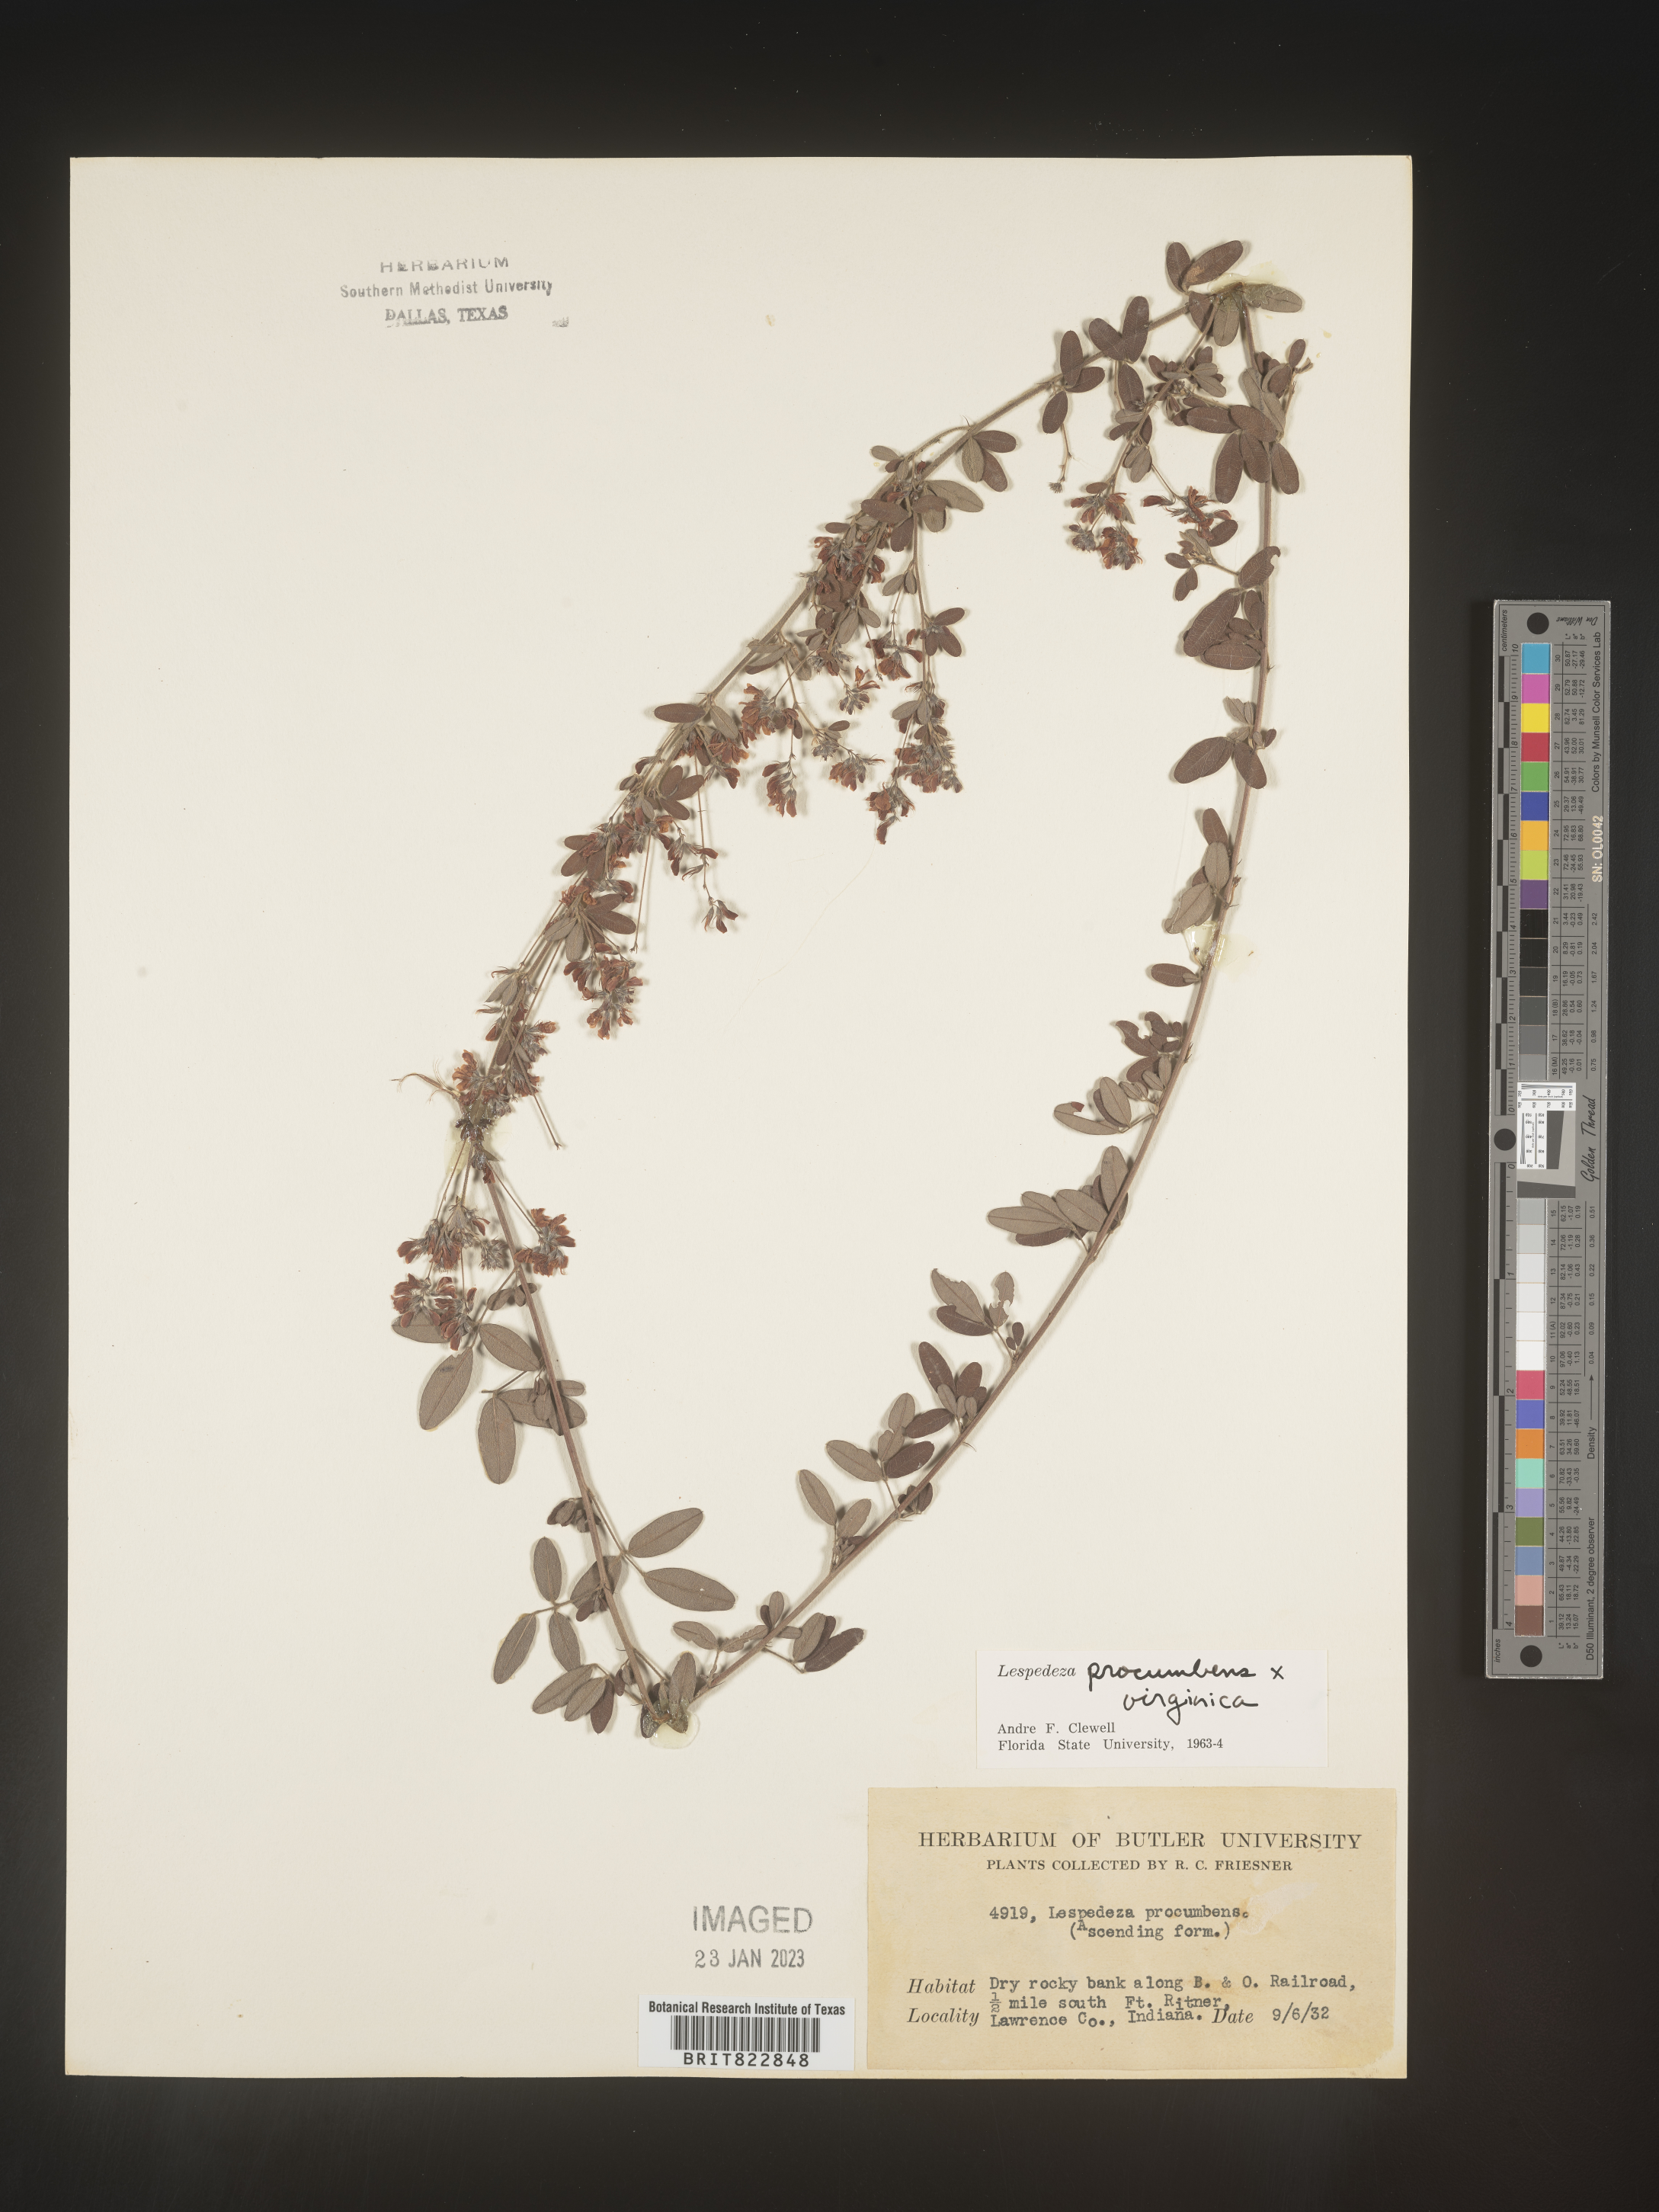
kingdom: Plantae
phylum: Tracheophyta
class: Magnoliopsida
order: Fabales
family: Fabaceae
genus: Lespedeza
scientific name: Lespedeza procumbens
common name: Downy trailing bush-clover
